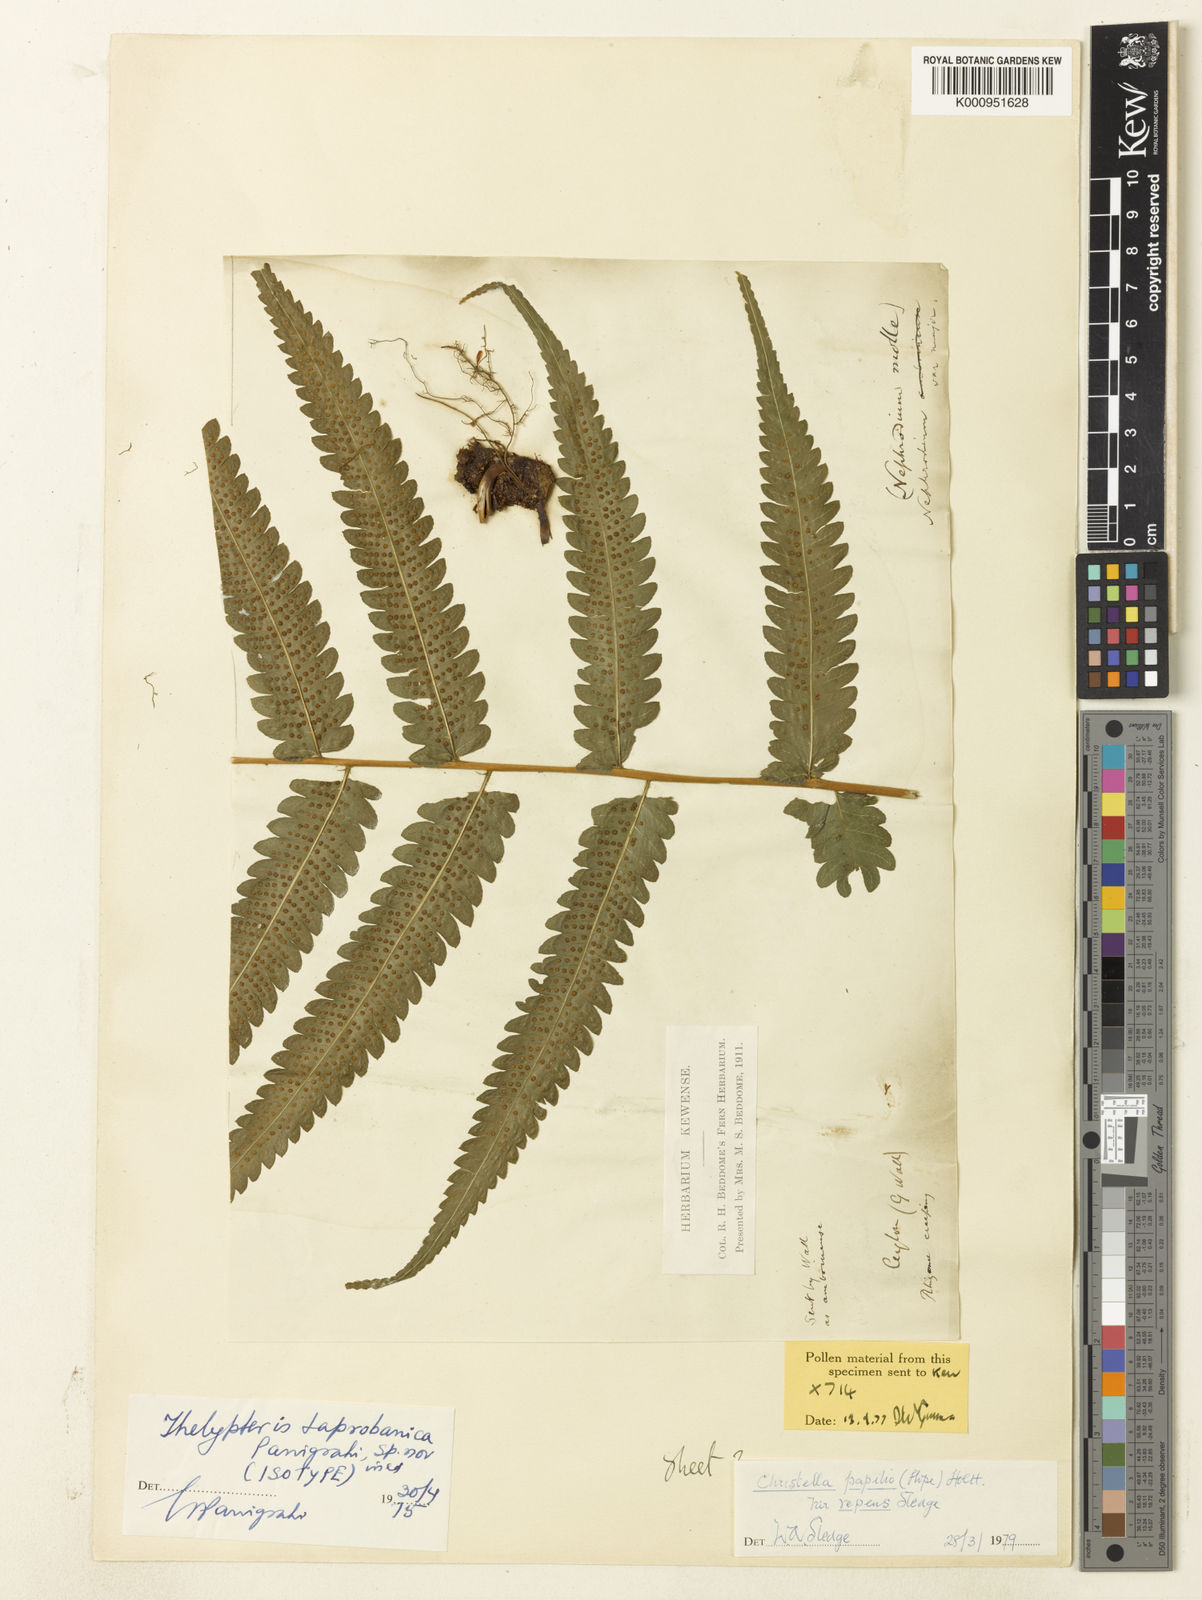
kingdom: Plantae
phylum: Tracheophyta
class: Polypodiopsida
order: Polypodiales
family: Thelypteridaceae
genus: Christella
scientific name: Christella evoluta
